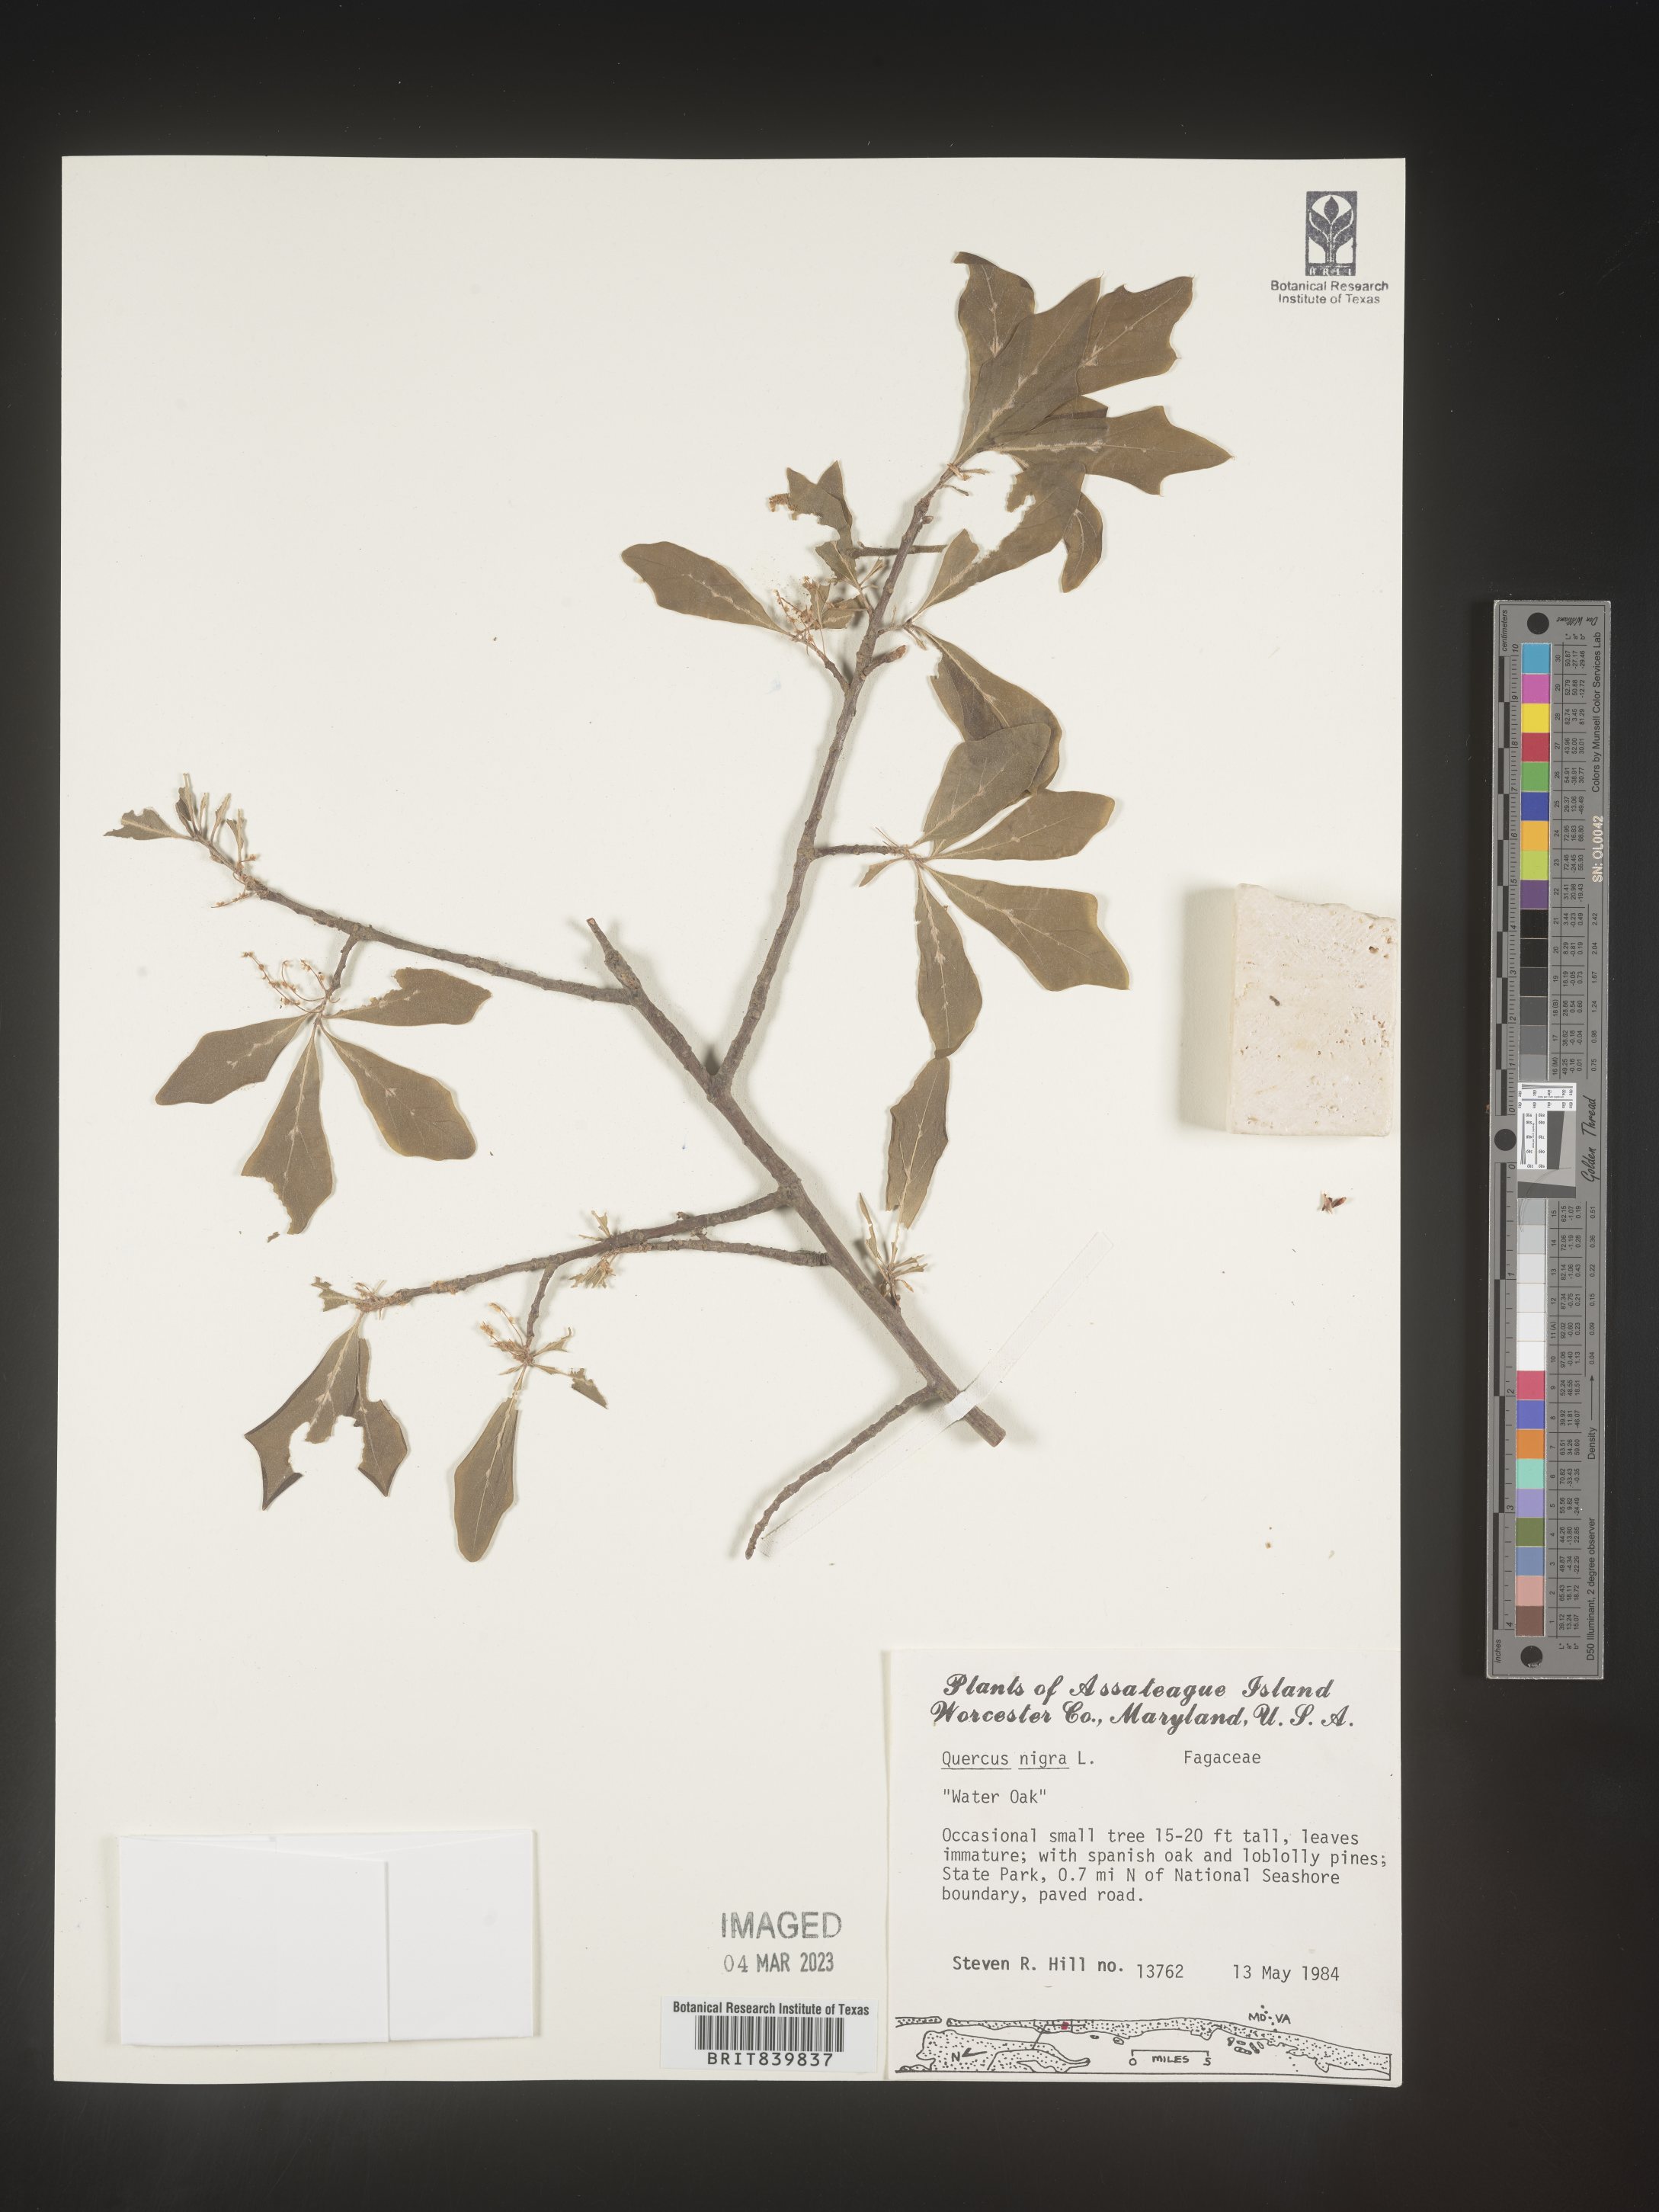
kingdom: Plantae
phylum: Tracheophyta
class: Magnoliopsida
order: Fagales
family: Fagaceae
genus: Quercus
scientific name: Quercus nigra
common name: Water oak
